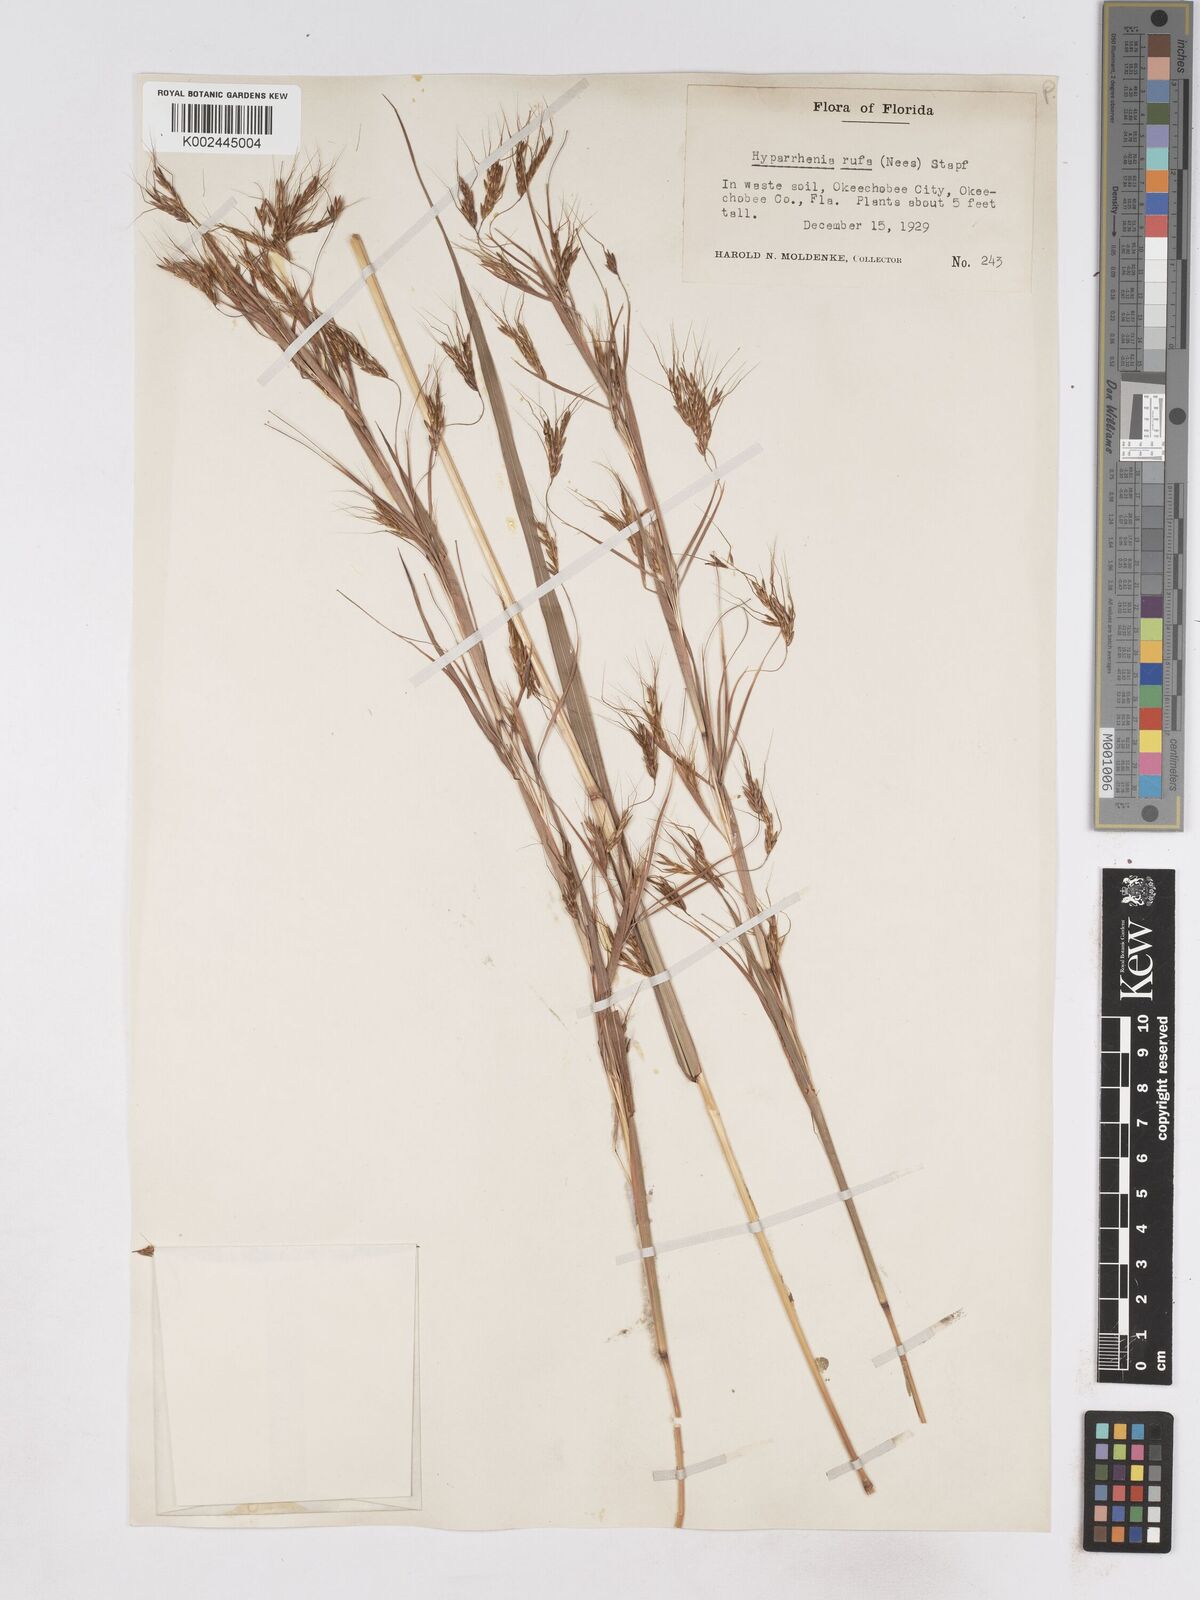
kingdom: Plantae
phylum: Tracheophyta
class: Liliopsida
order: Poales
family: Poaceae
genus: Hyparrhenia
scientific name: Hyparrhenia rufa
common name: Jaraguagrass
